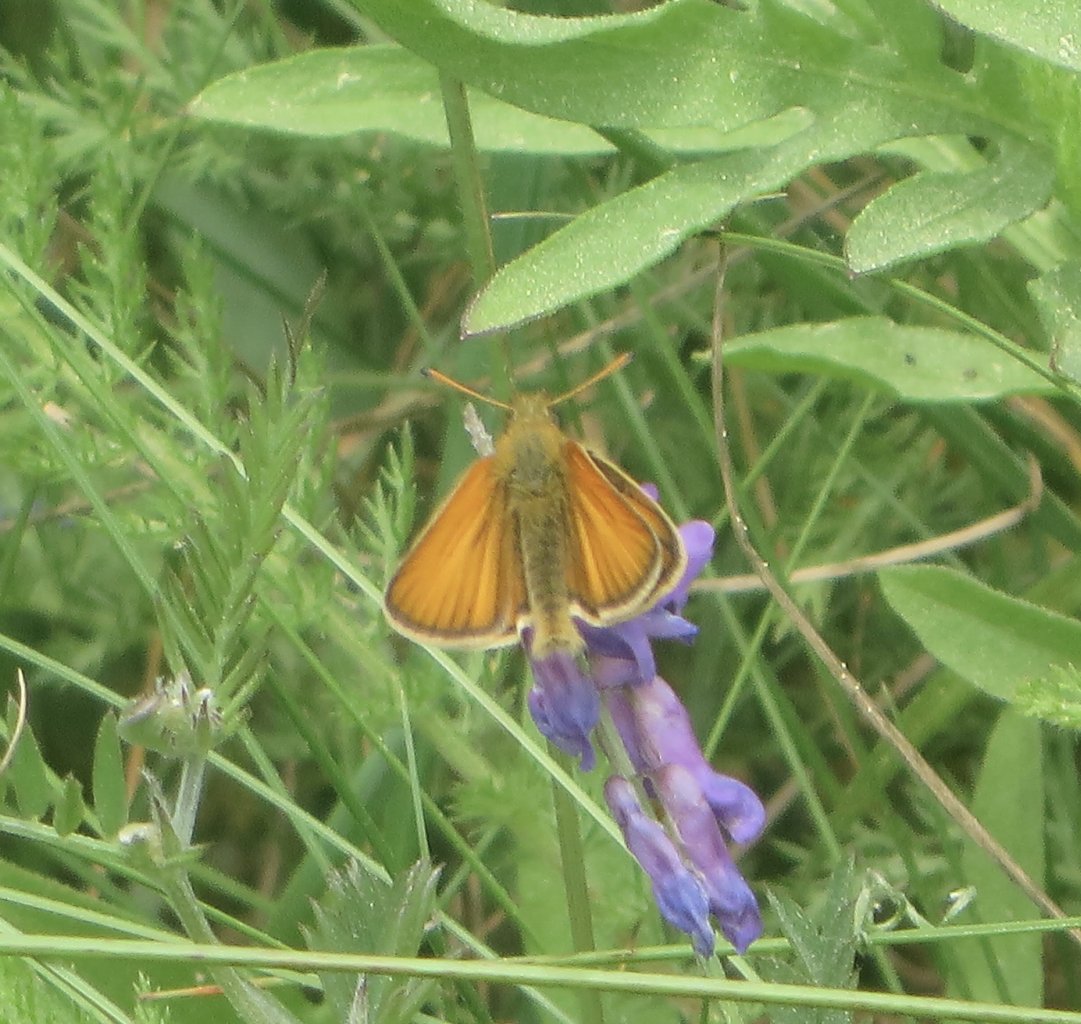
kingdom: Animalia
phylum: Arthropoda
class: Insecta
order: Lepidoptera
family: Hesperiidae
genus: Thymelicus
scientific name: Thymelicus lineola
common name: European Skipper
